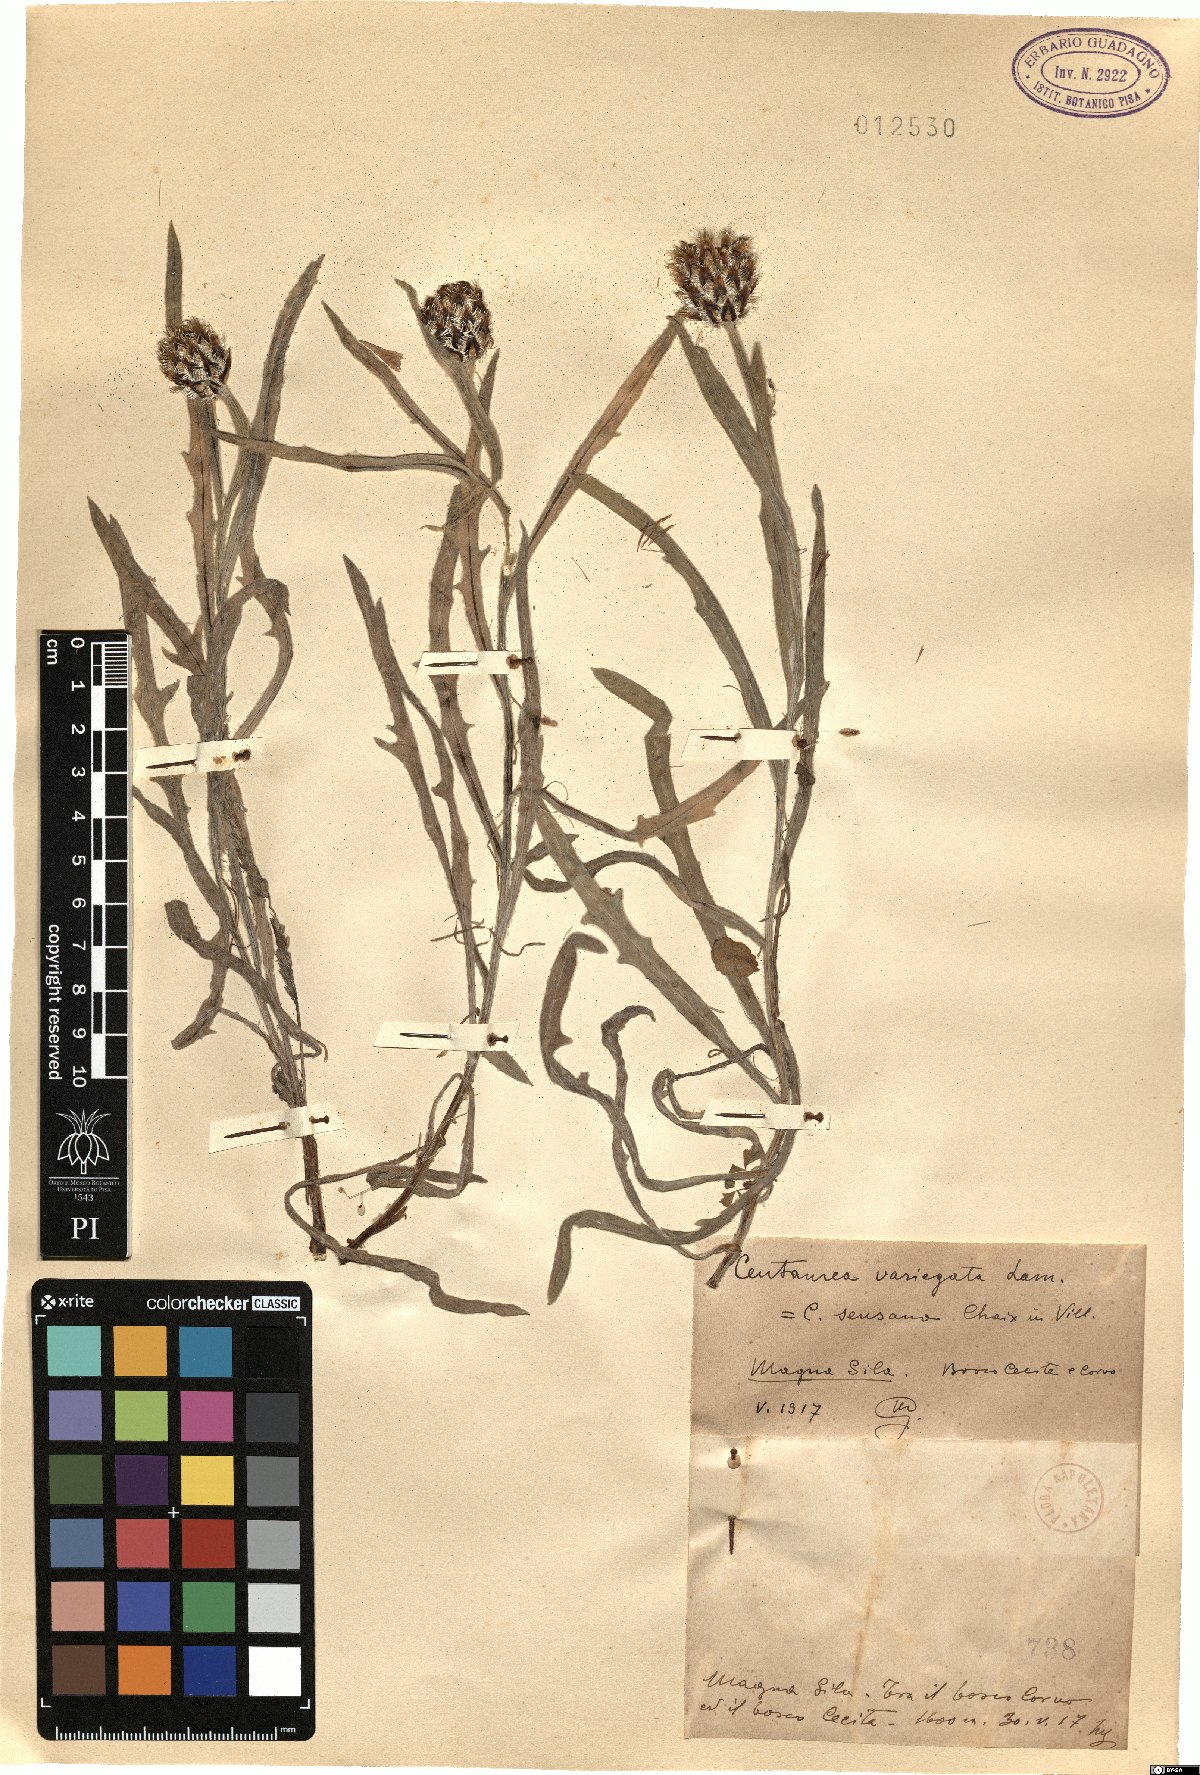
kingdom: Plantae
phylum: Tracheophyta
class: Magnoliopsida
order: Asterales
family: Asteraceae
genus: Centaurea
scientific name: Centaurea graminifolia
